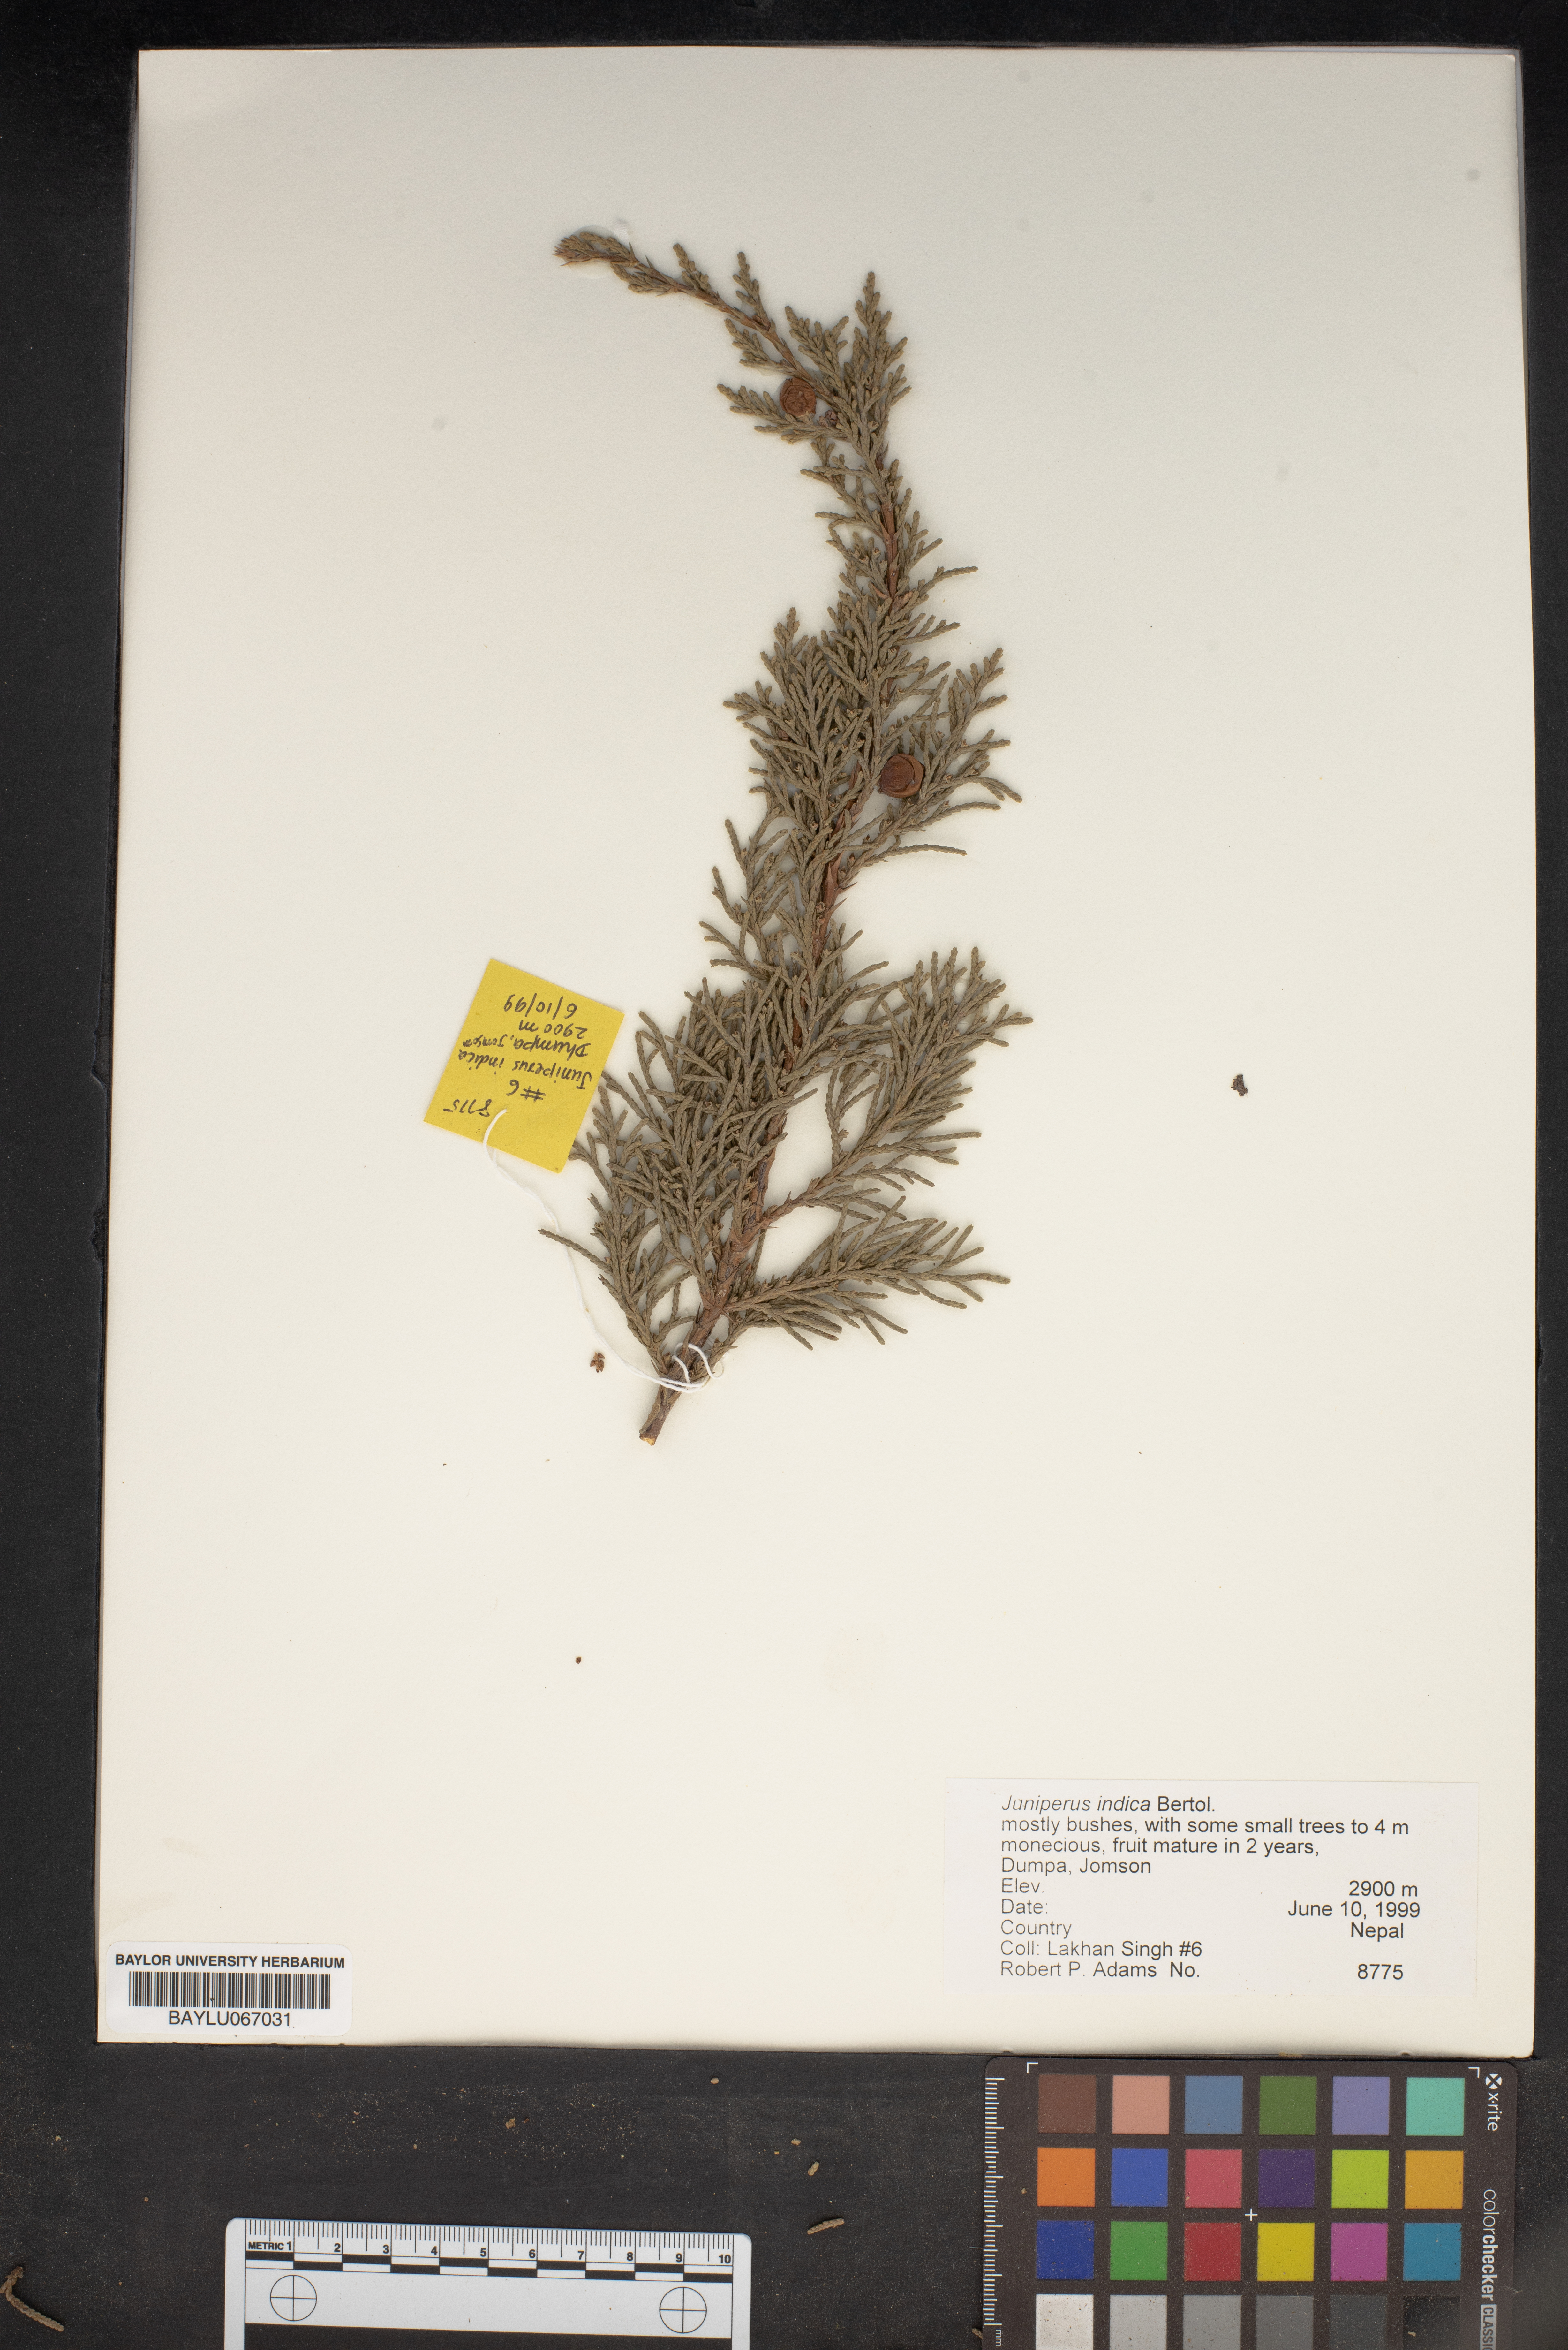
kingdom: Plantae
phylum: Tracheophyta
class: Pinopsida
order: Pinales
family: Cupressaceae
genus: Juniperus
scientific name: Juniperus indica
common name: Black juniper
